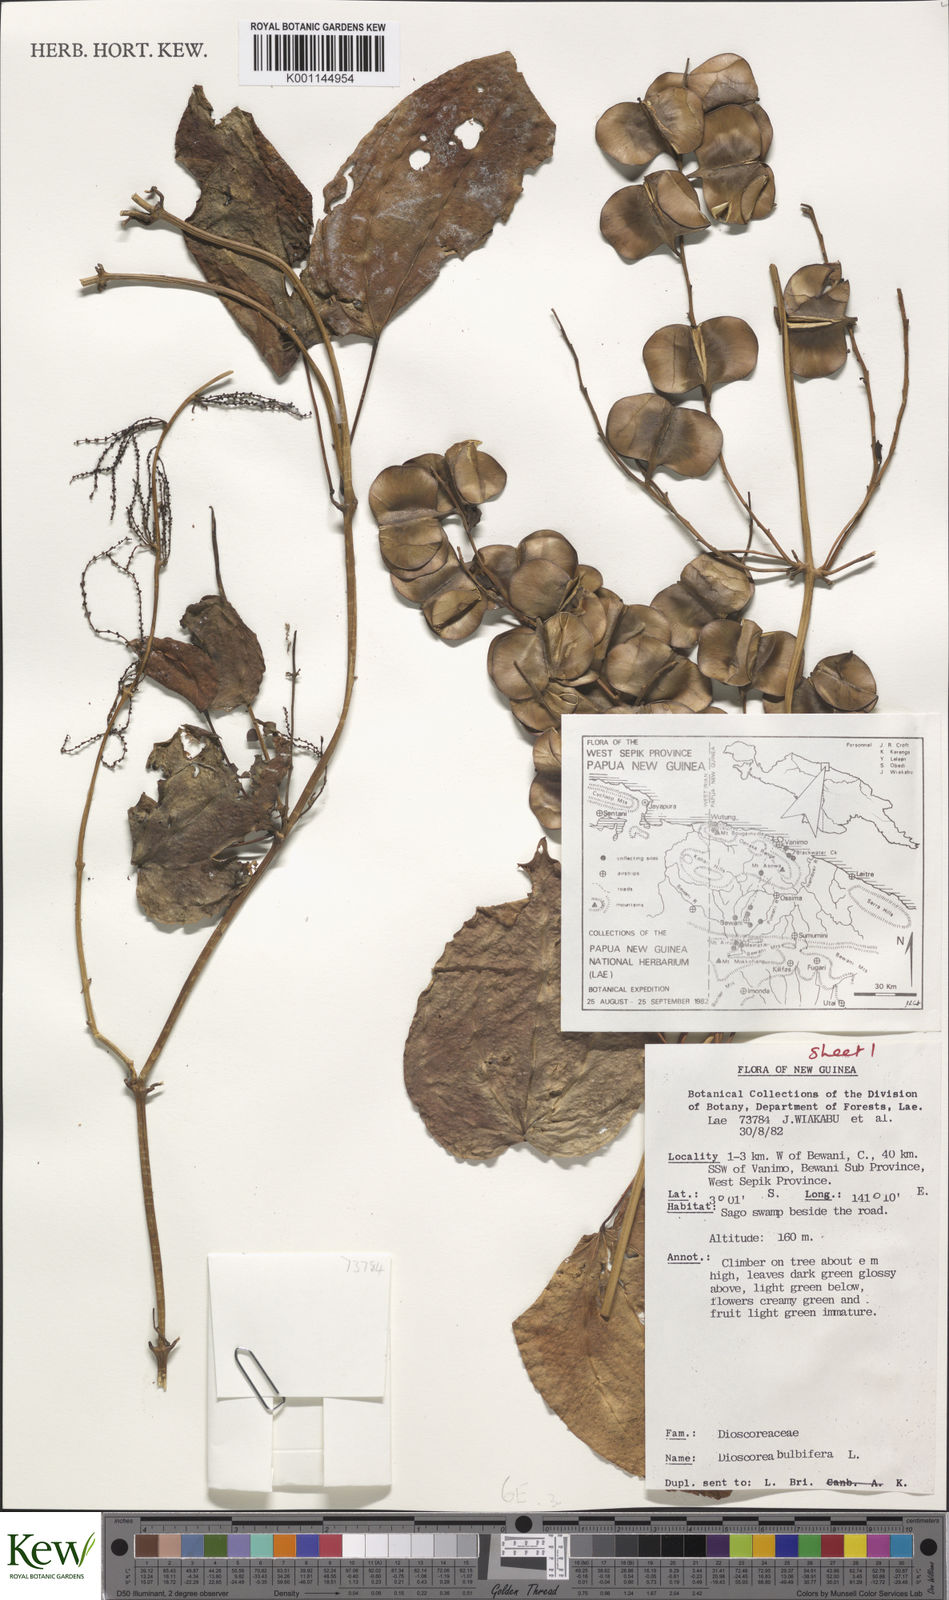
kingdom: Plantae
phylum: Tracheophyta
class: Liliopsida
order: Dioscoreales
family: Dioscoreaceae
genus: Dioscorea
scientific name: Dioscorea bulbifera
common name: Air yam
